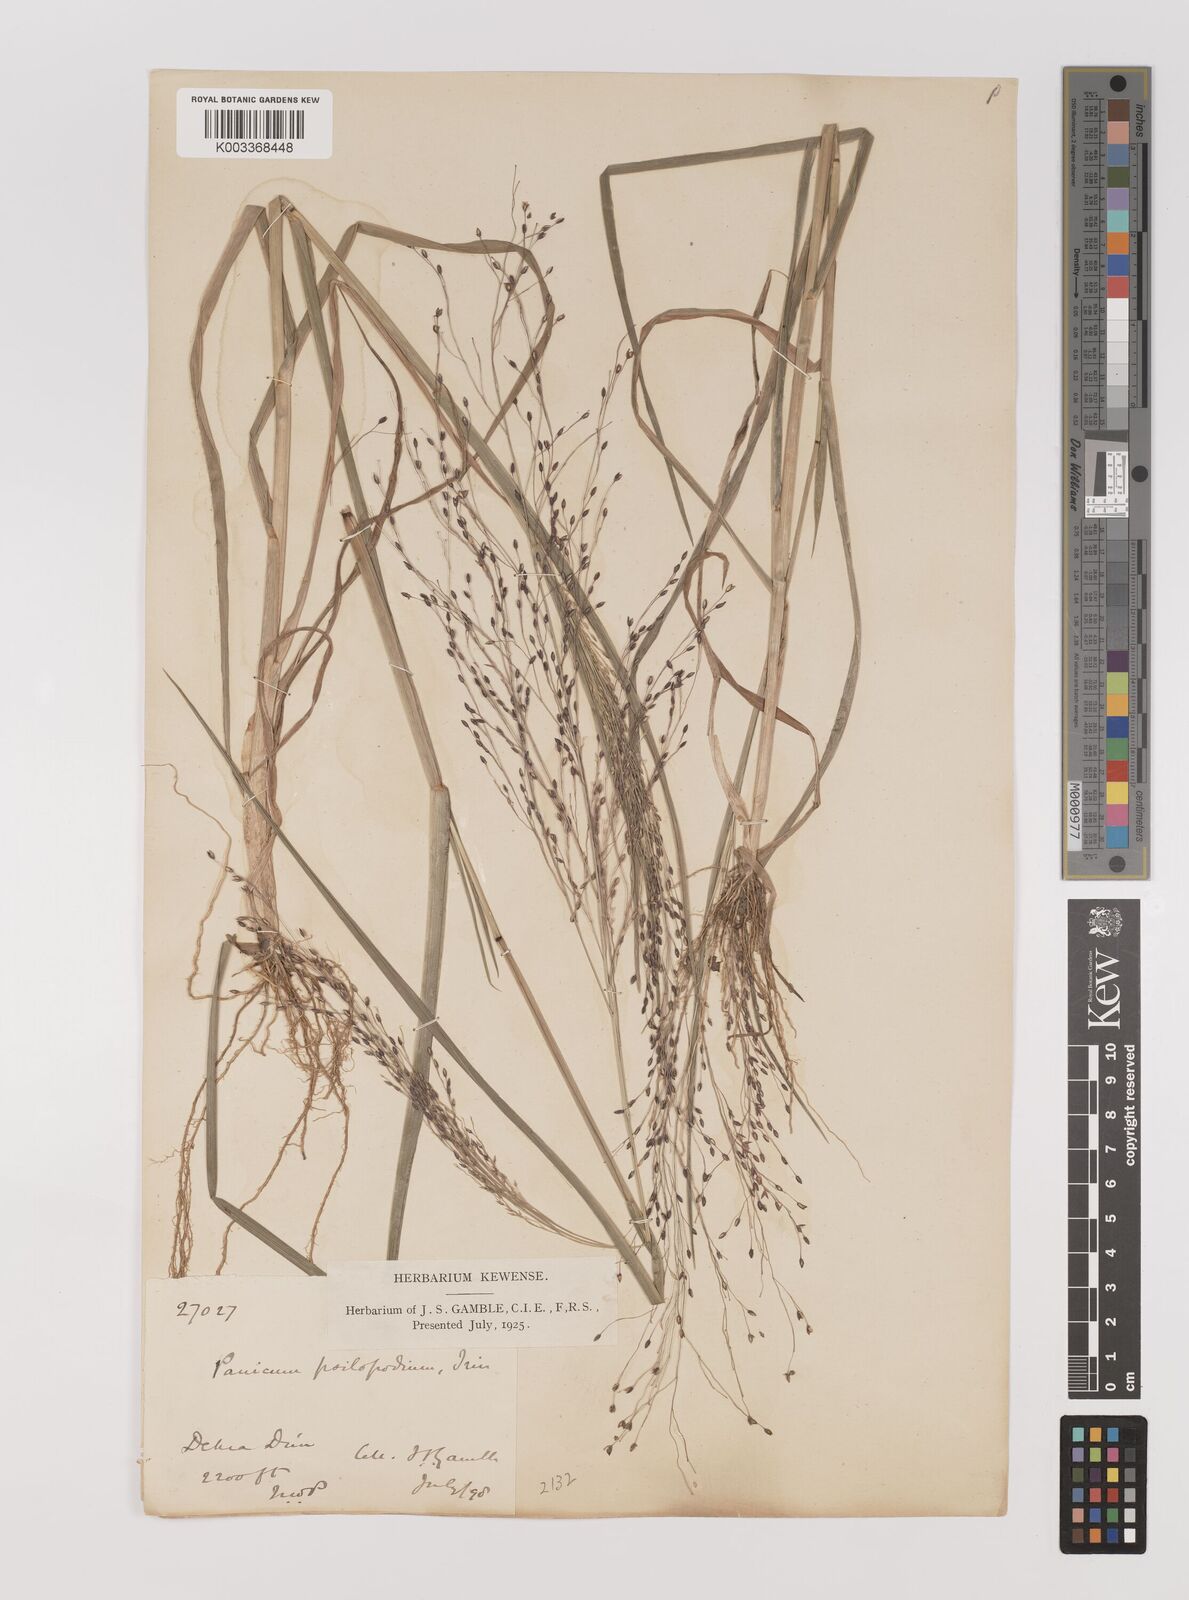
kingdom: Plantae
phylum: Tracheophyta
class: Liliopsida
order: Poales
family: Poaceae
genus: Panicum
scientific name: Panicum sumatrense
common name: Little millet
